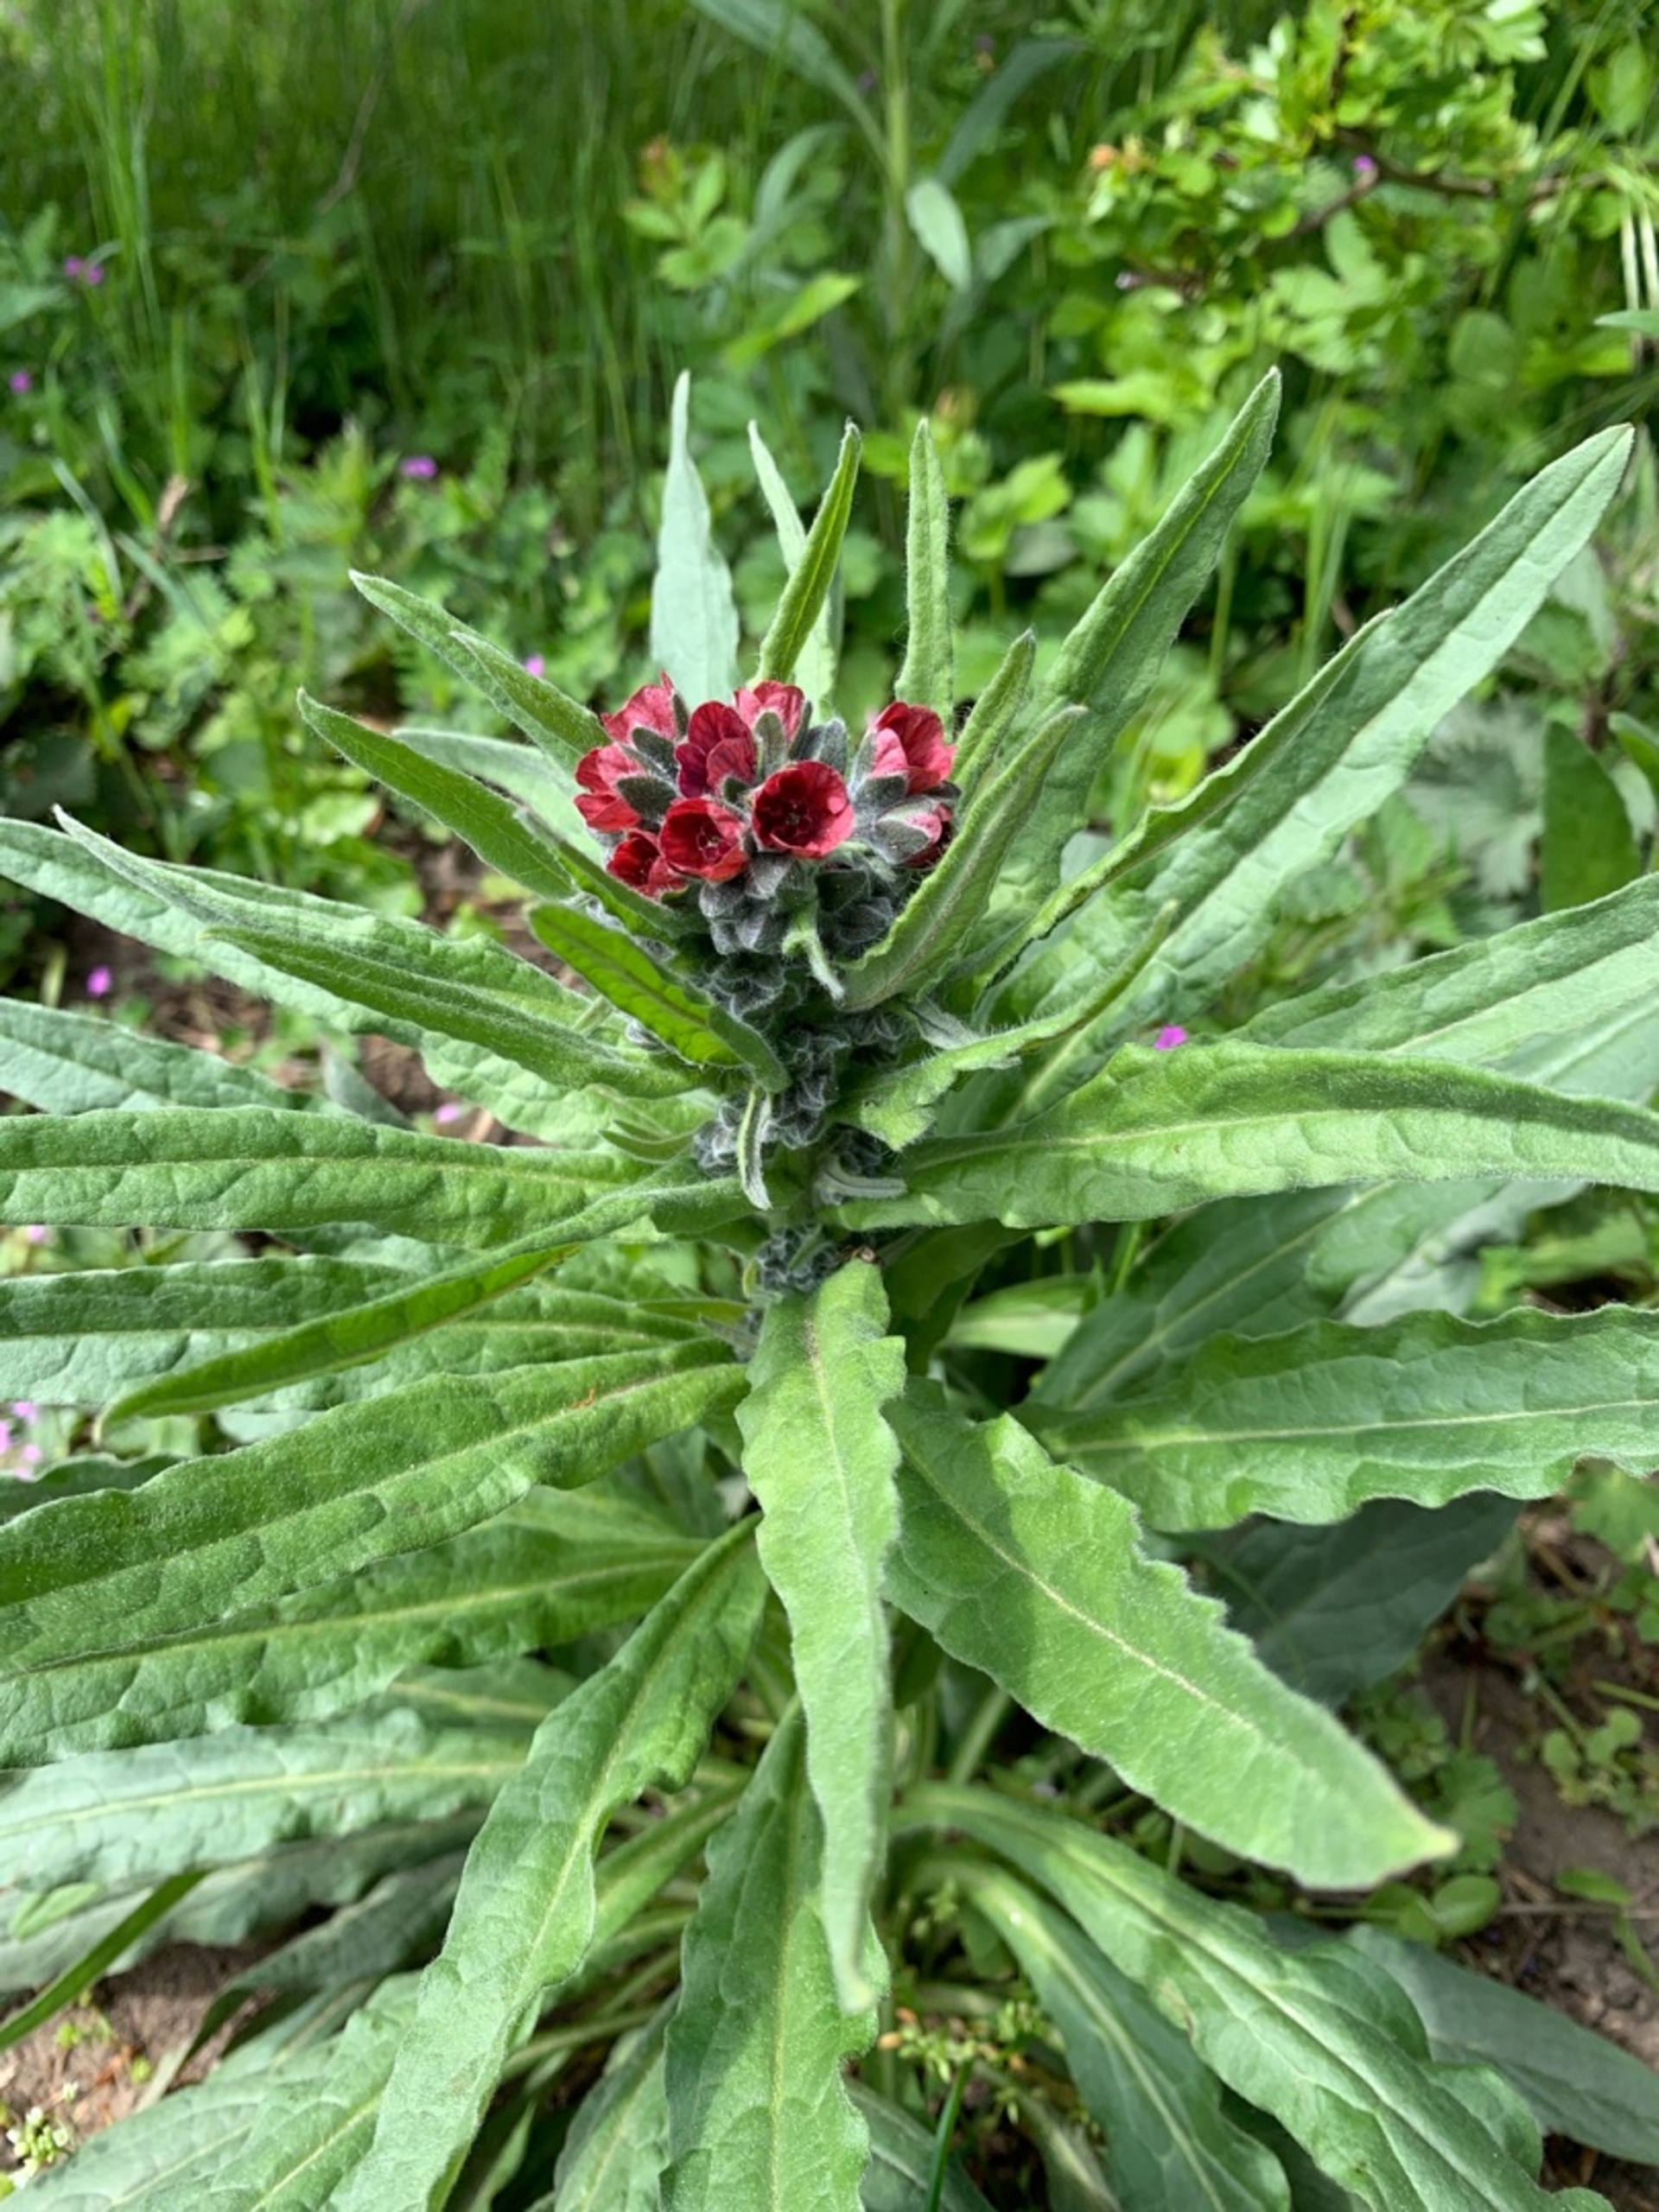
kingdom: Plantae
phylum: Tracheophyta
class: Magnoliopsida
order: Boraginales
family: Boraginaceae
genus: Cynoglossum
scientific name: Cynoglossum officinale
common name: Hundetunge
